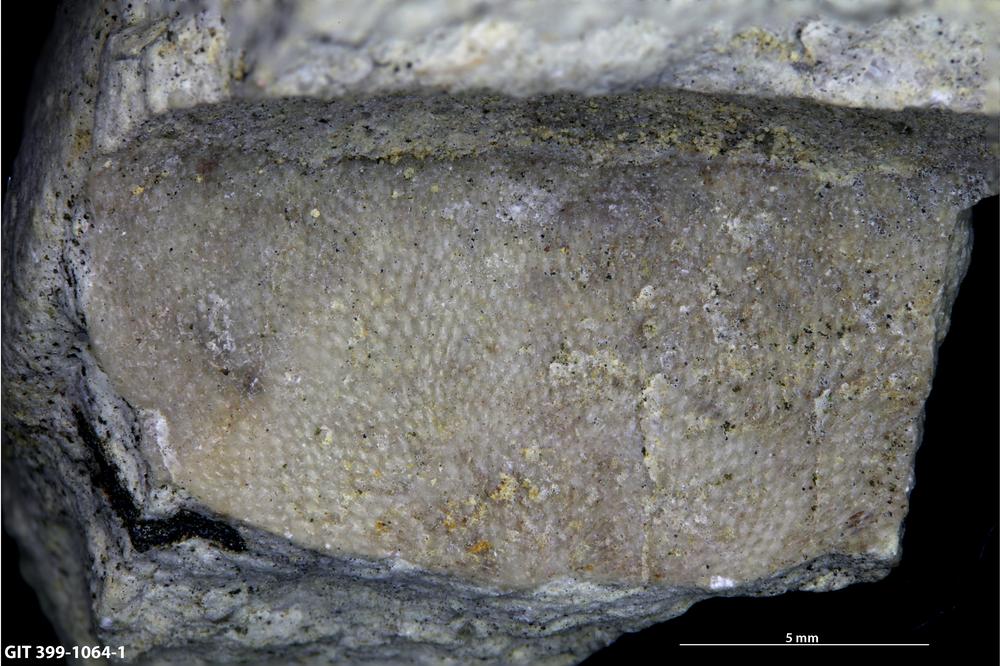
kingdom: Animalia
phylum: Bryozoa
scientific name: Bryozoa
